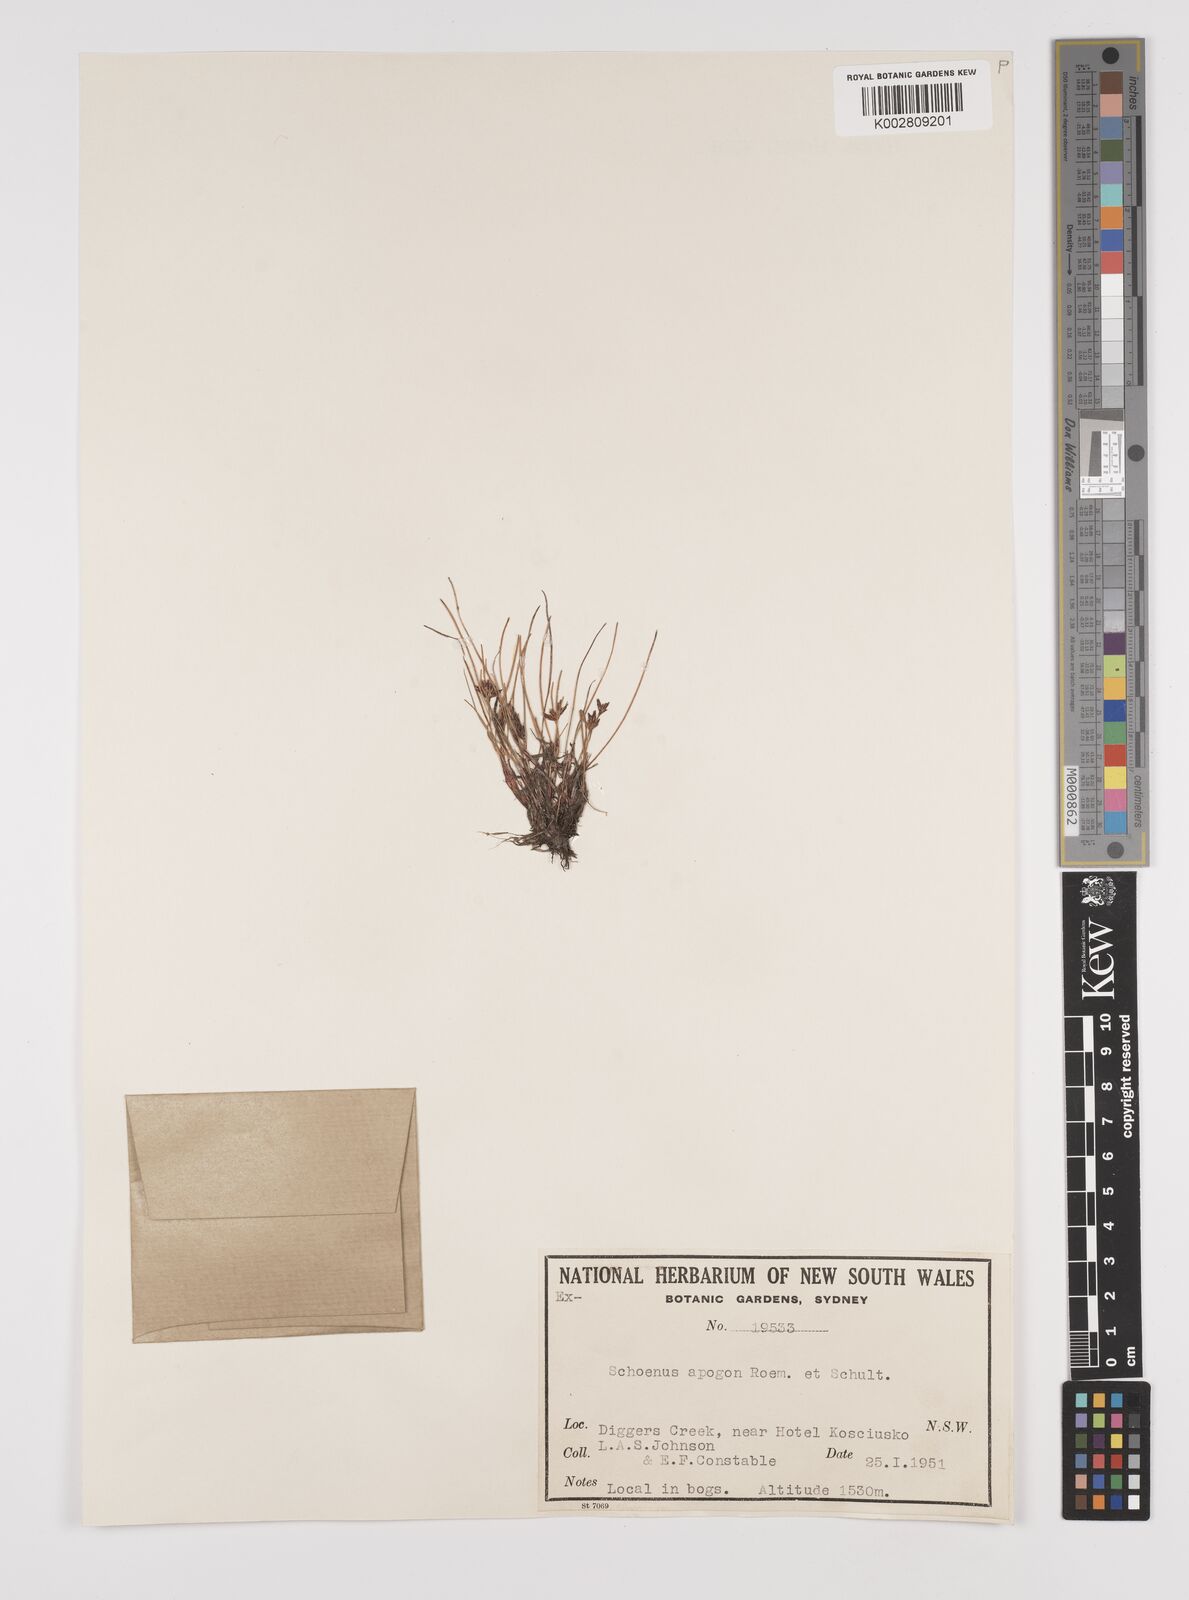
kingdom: Plantae
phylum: Tracheophyta
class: Liliopsida
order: Poales
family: Cyperaceae
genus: Schoenus
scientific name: Schoenus apogon
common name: Smooth bogrush
